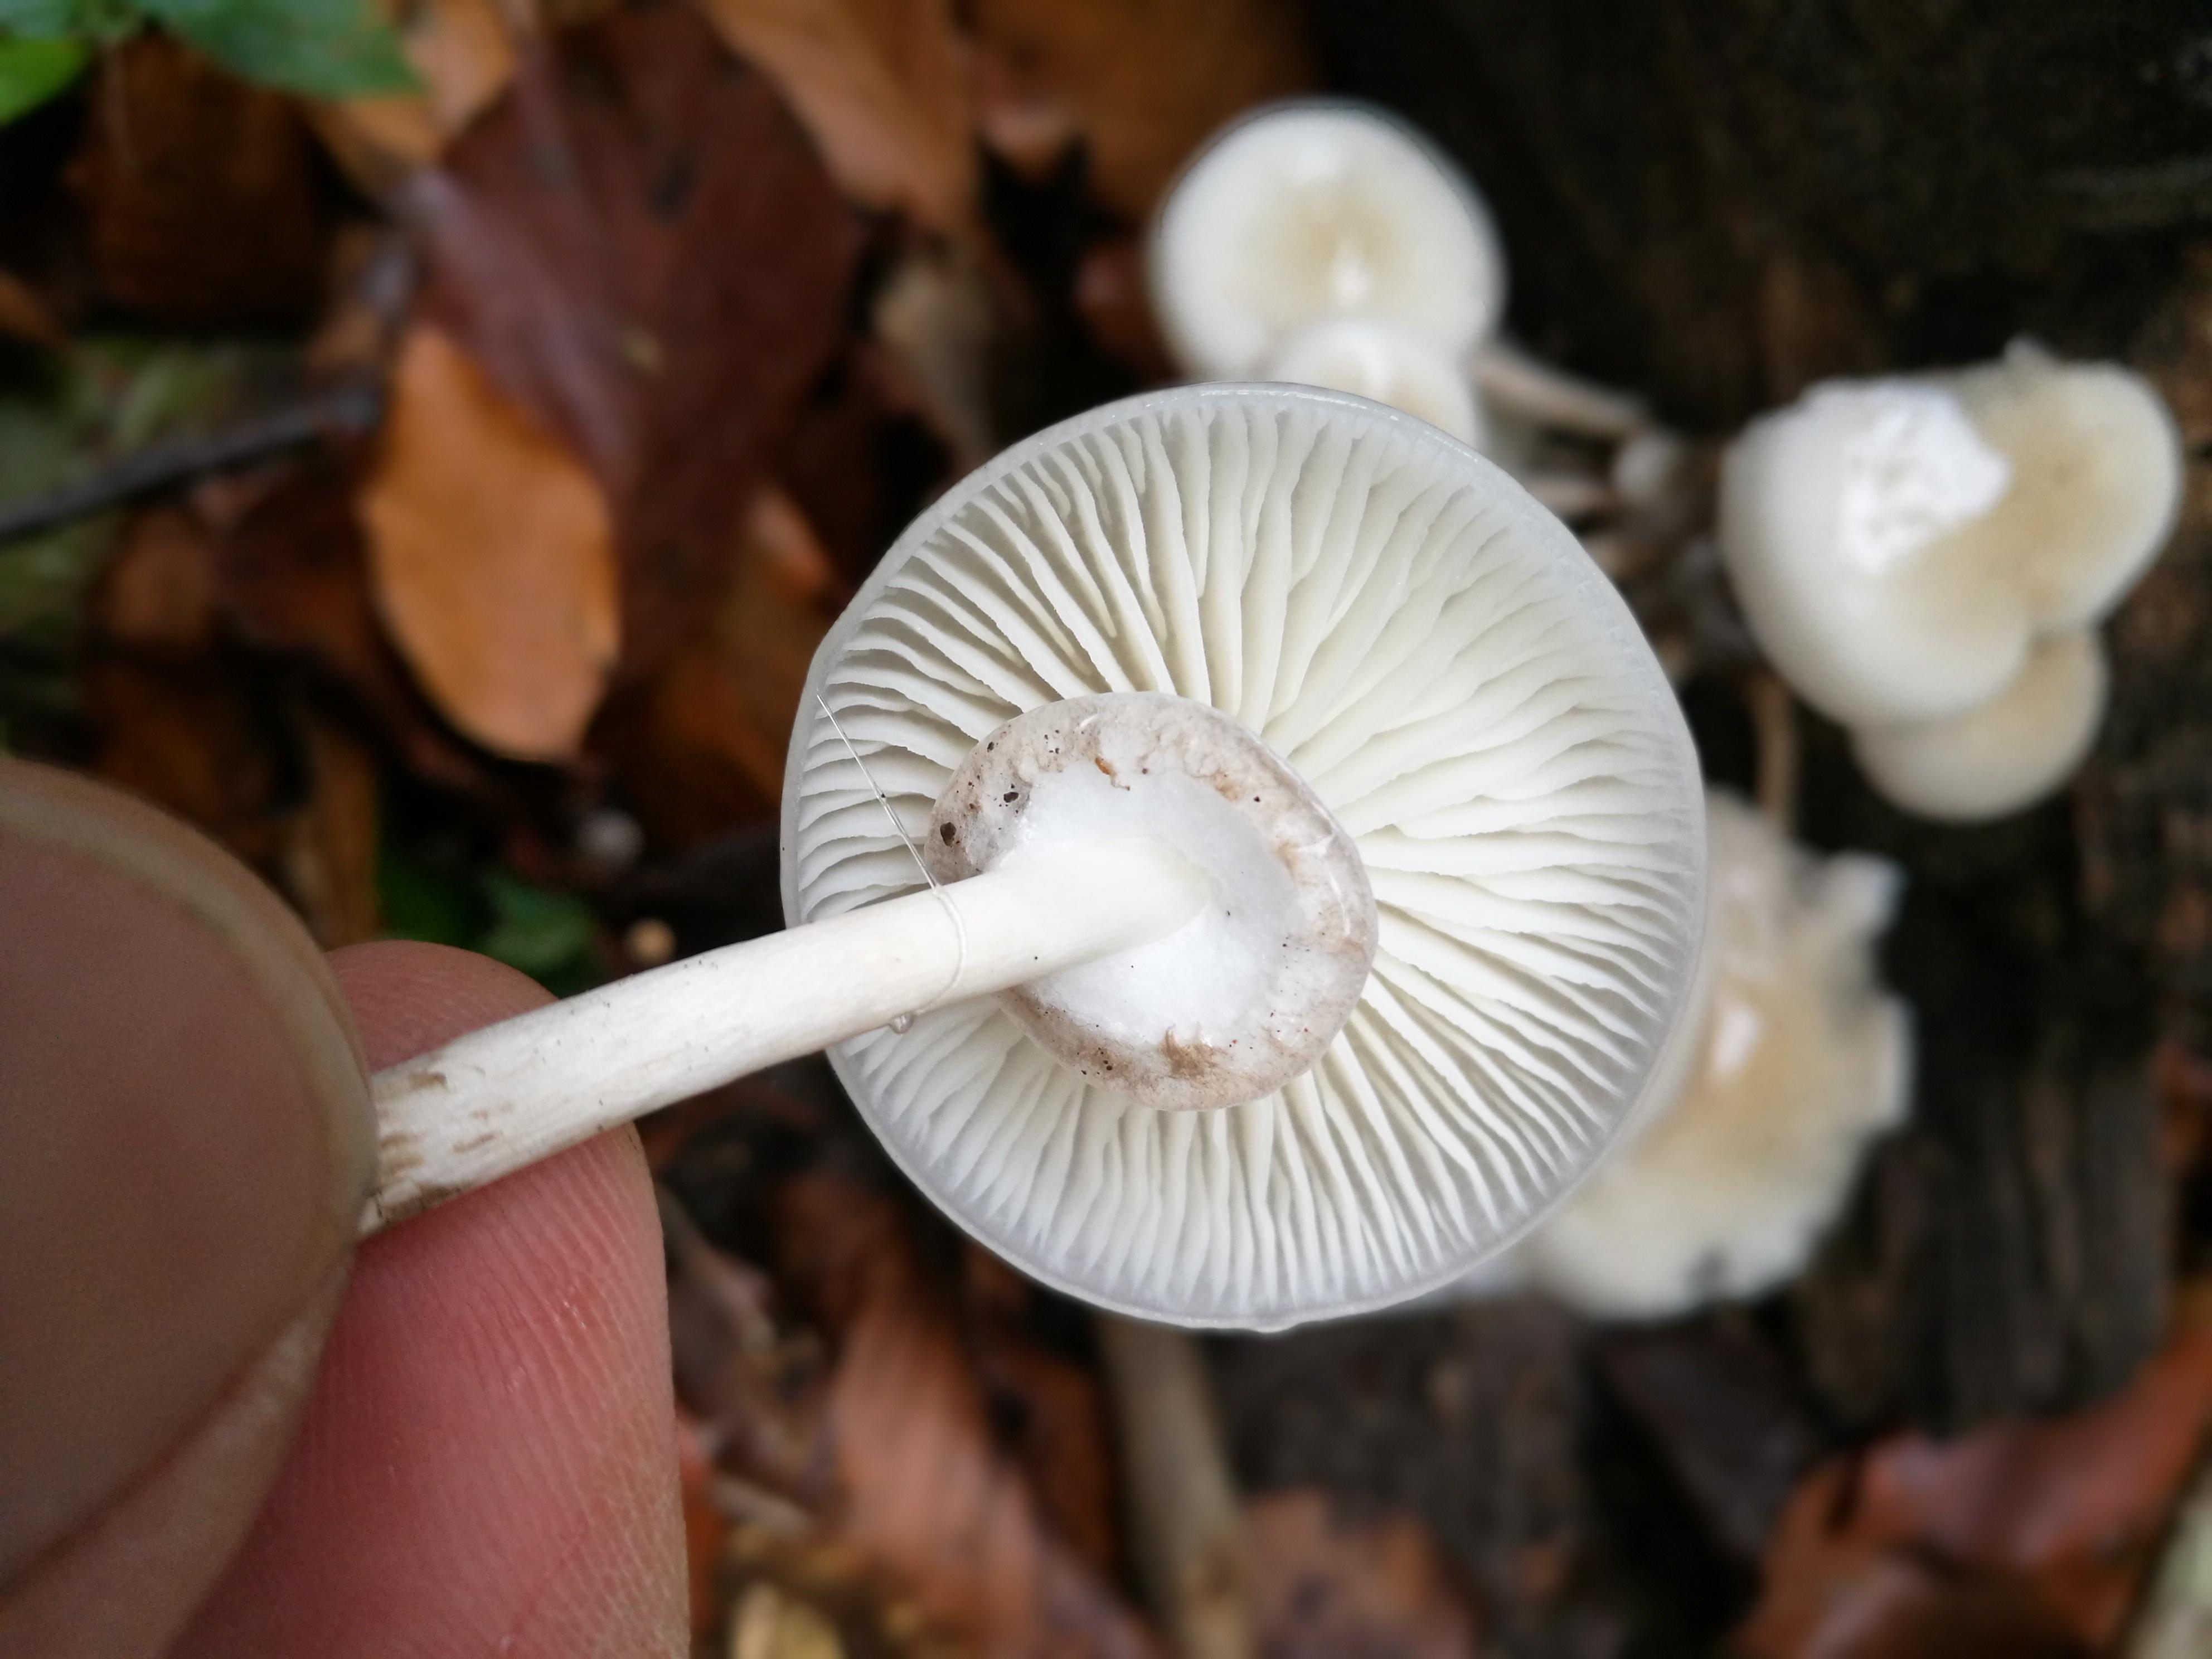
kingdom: Fungi
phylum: Basidiomycota
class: Agaricomycetes
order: Agaricales
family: Physalacriaceae
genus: Mucidula
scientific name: Mucidula mucida
